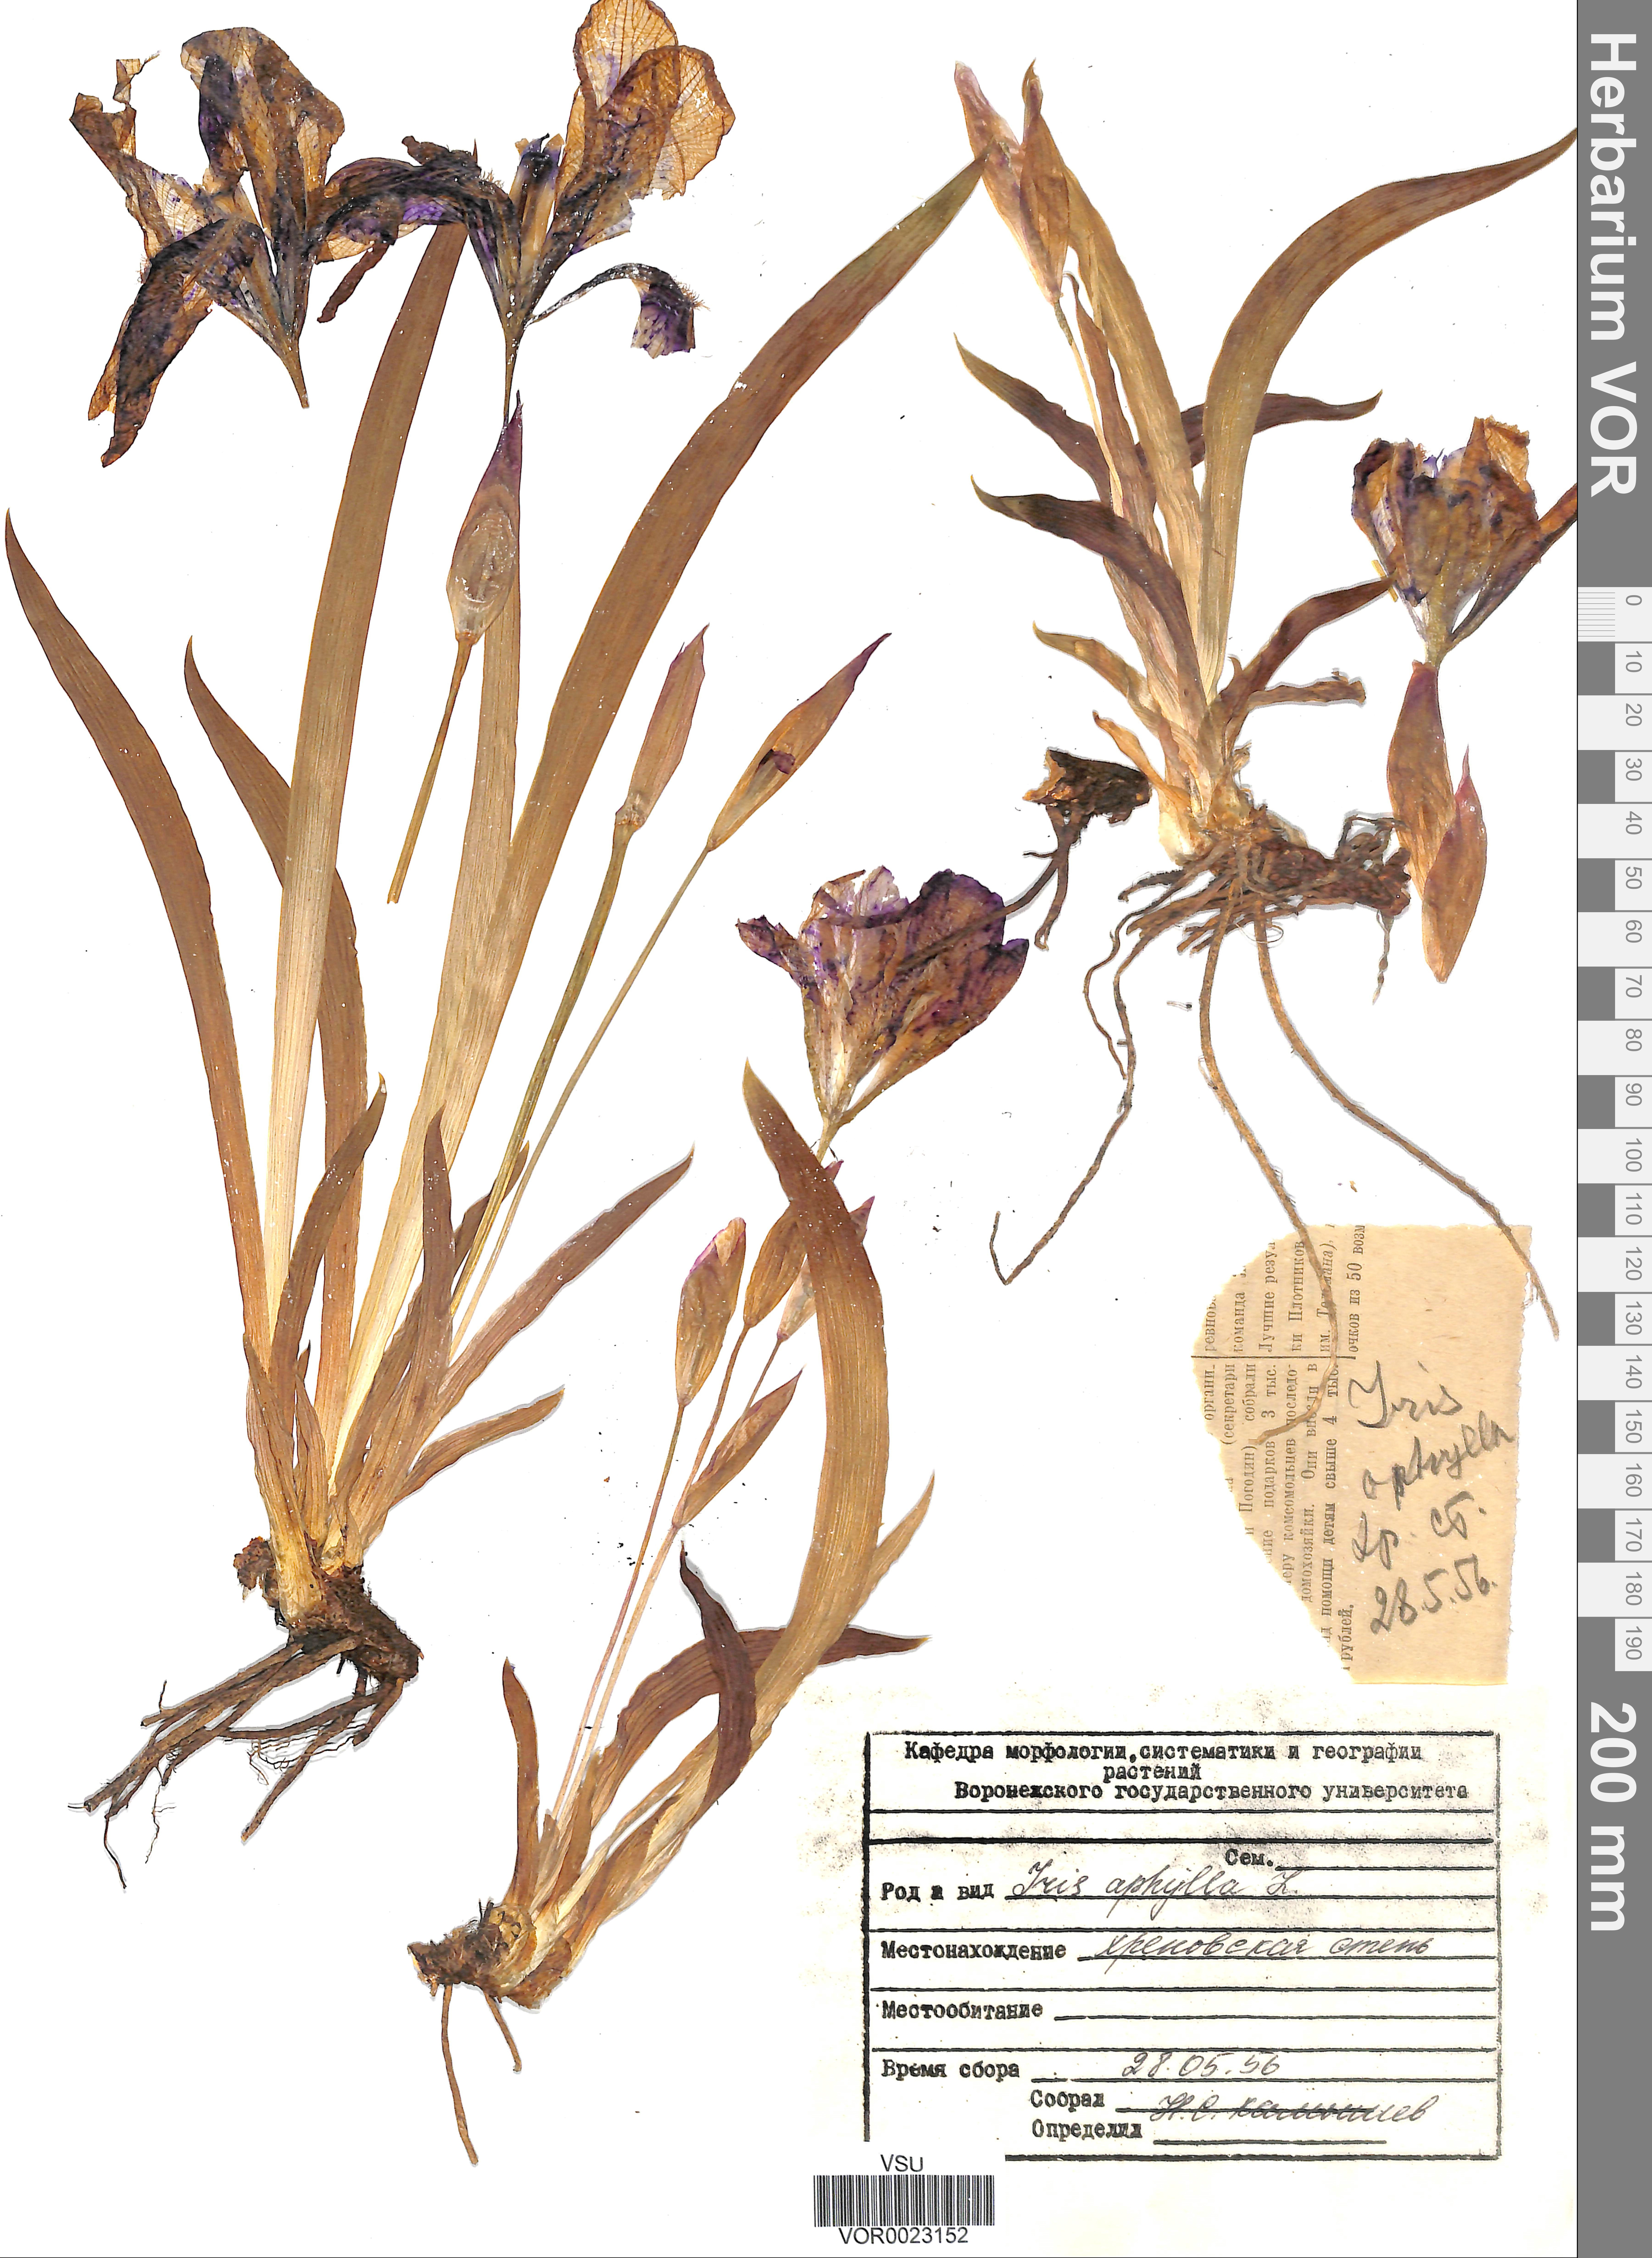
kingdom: Plantae
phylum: Tracheophyta
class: Liliopsida
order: Asparagales
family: Iridaceae
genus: Iris
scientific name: Iris aphylla
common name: Stool iris
